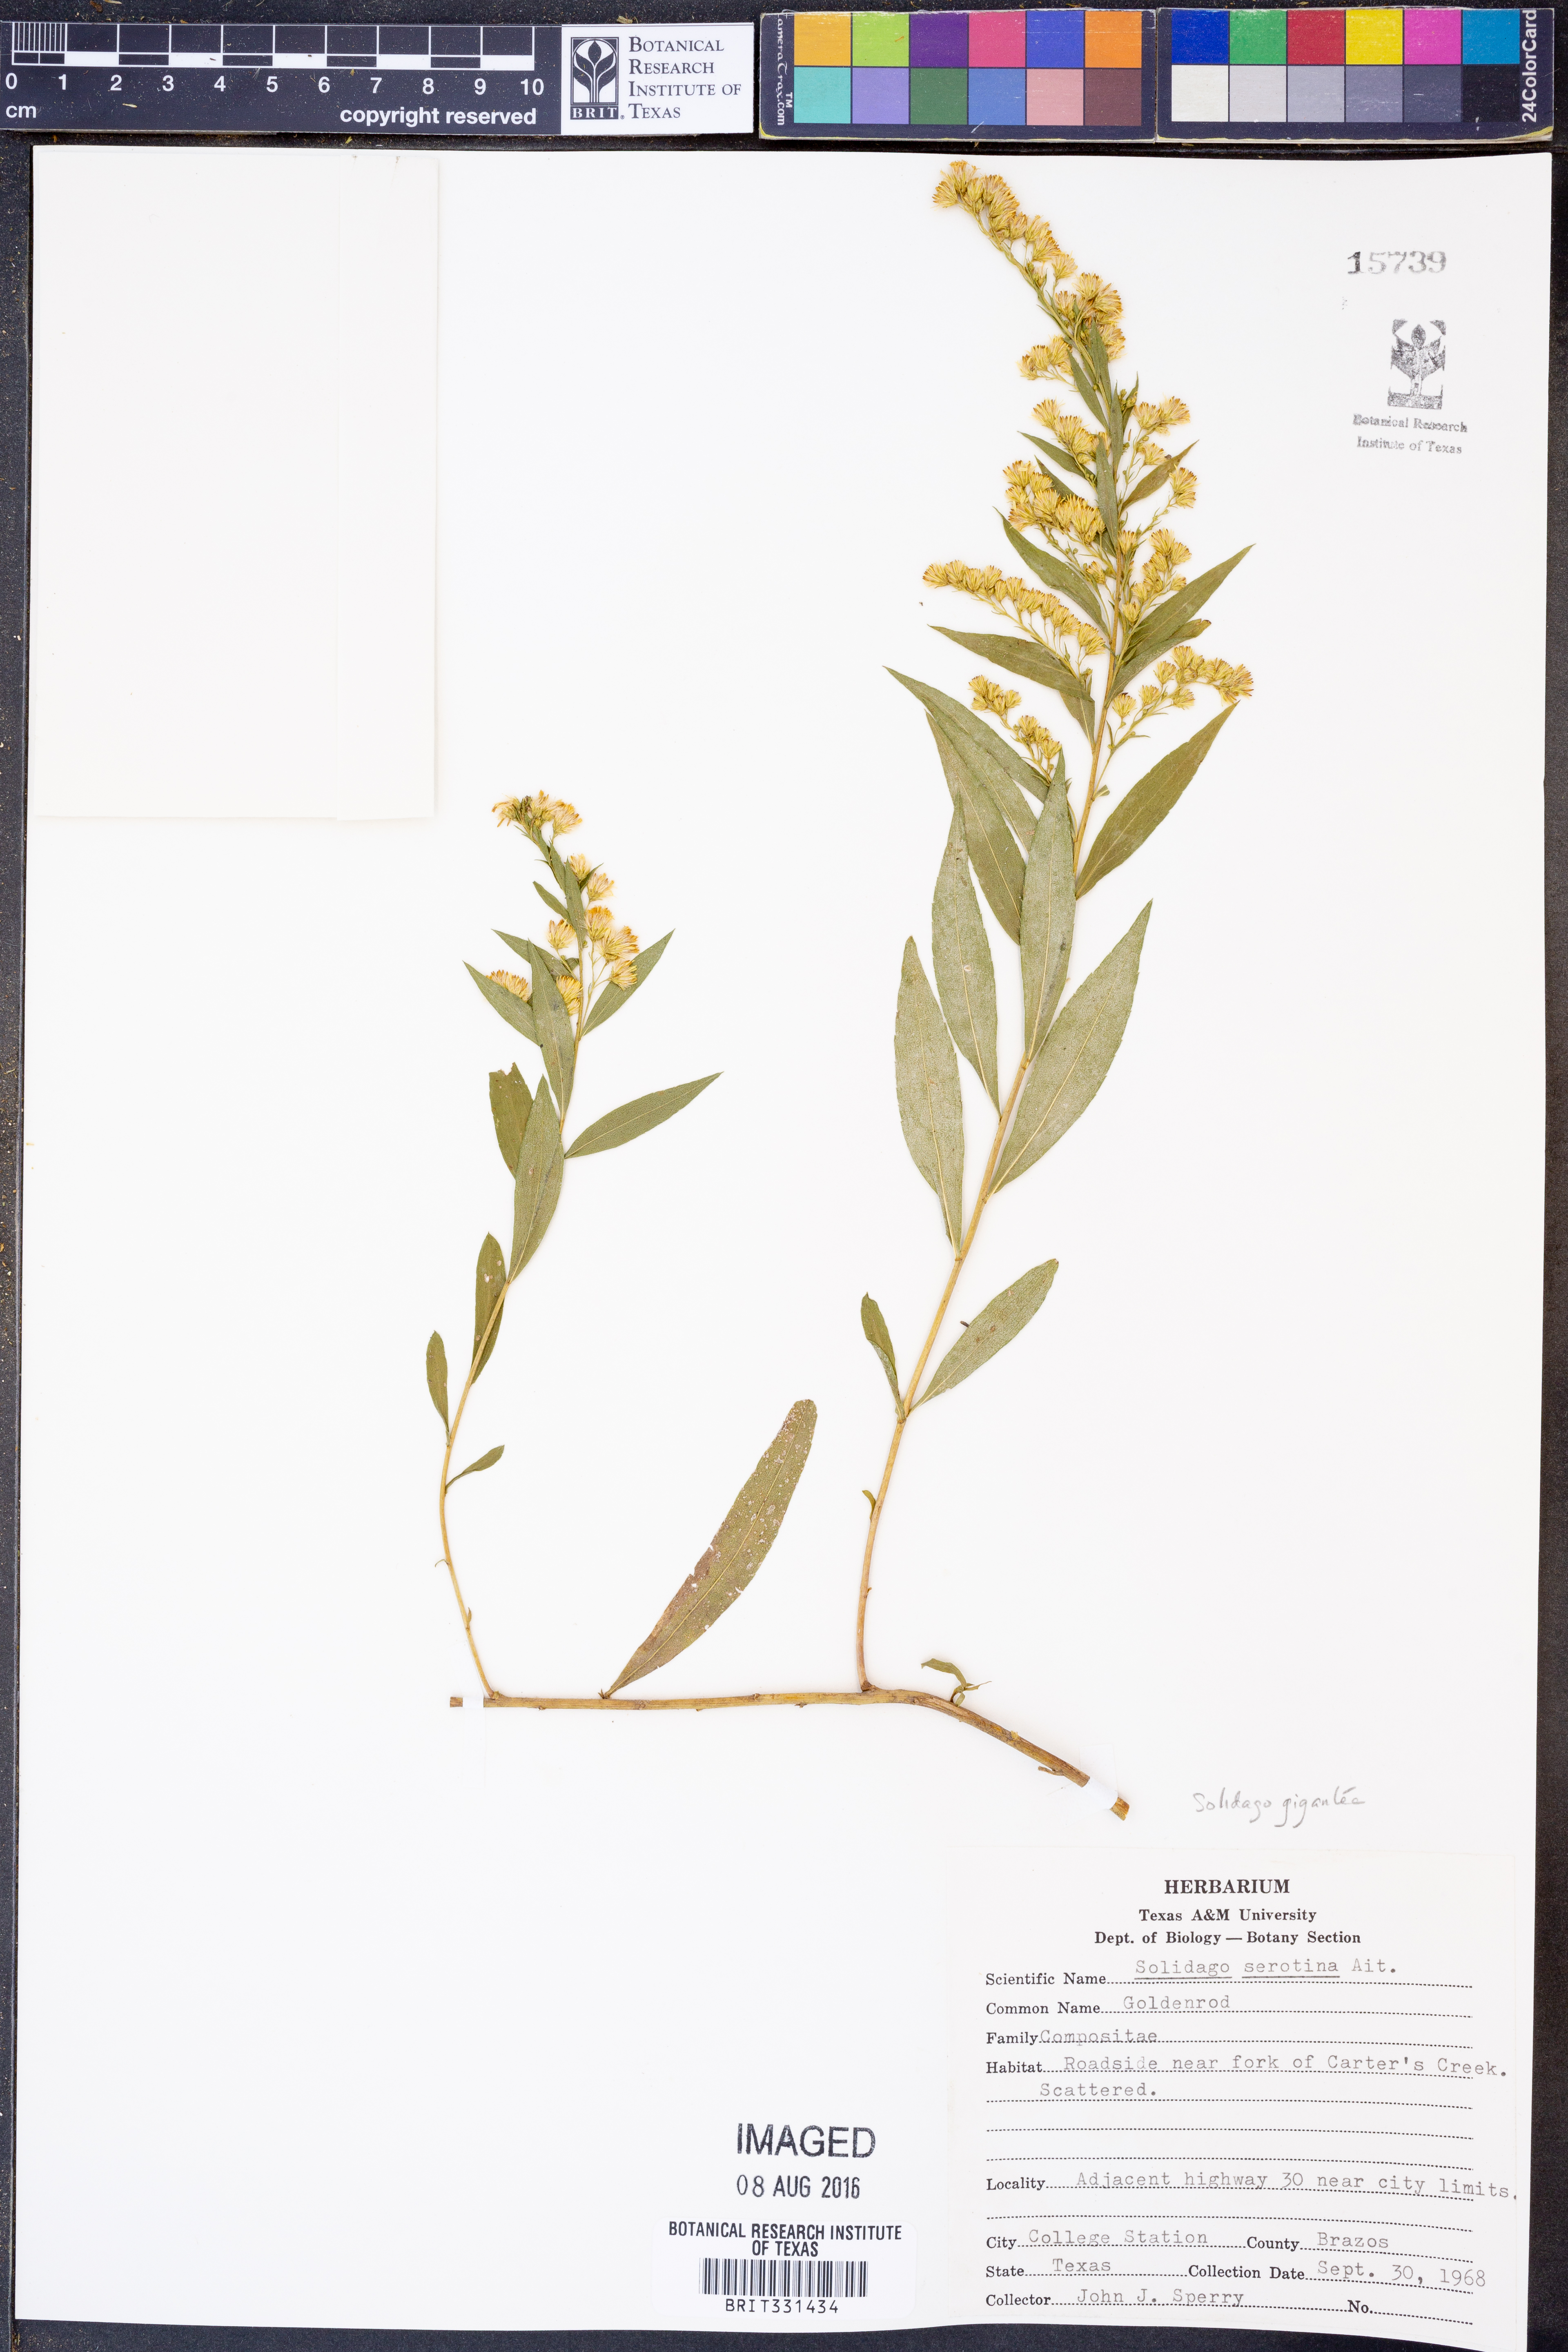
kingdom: Plantae
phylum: Tracheophyta
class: Magnoliopsida
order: Asterales
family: Asteraceae
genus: Solidago
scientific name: Solidago gigantea
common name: Giant goldenrod
